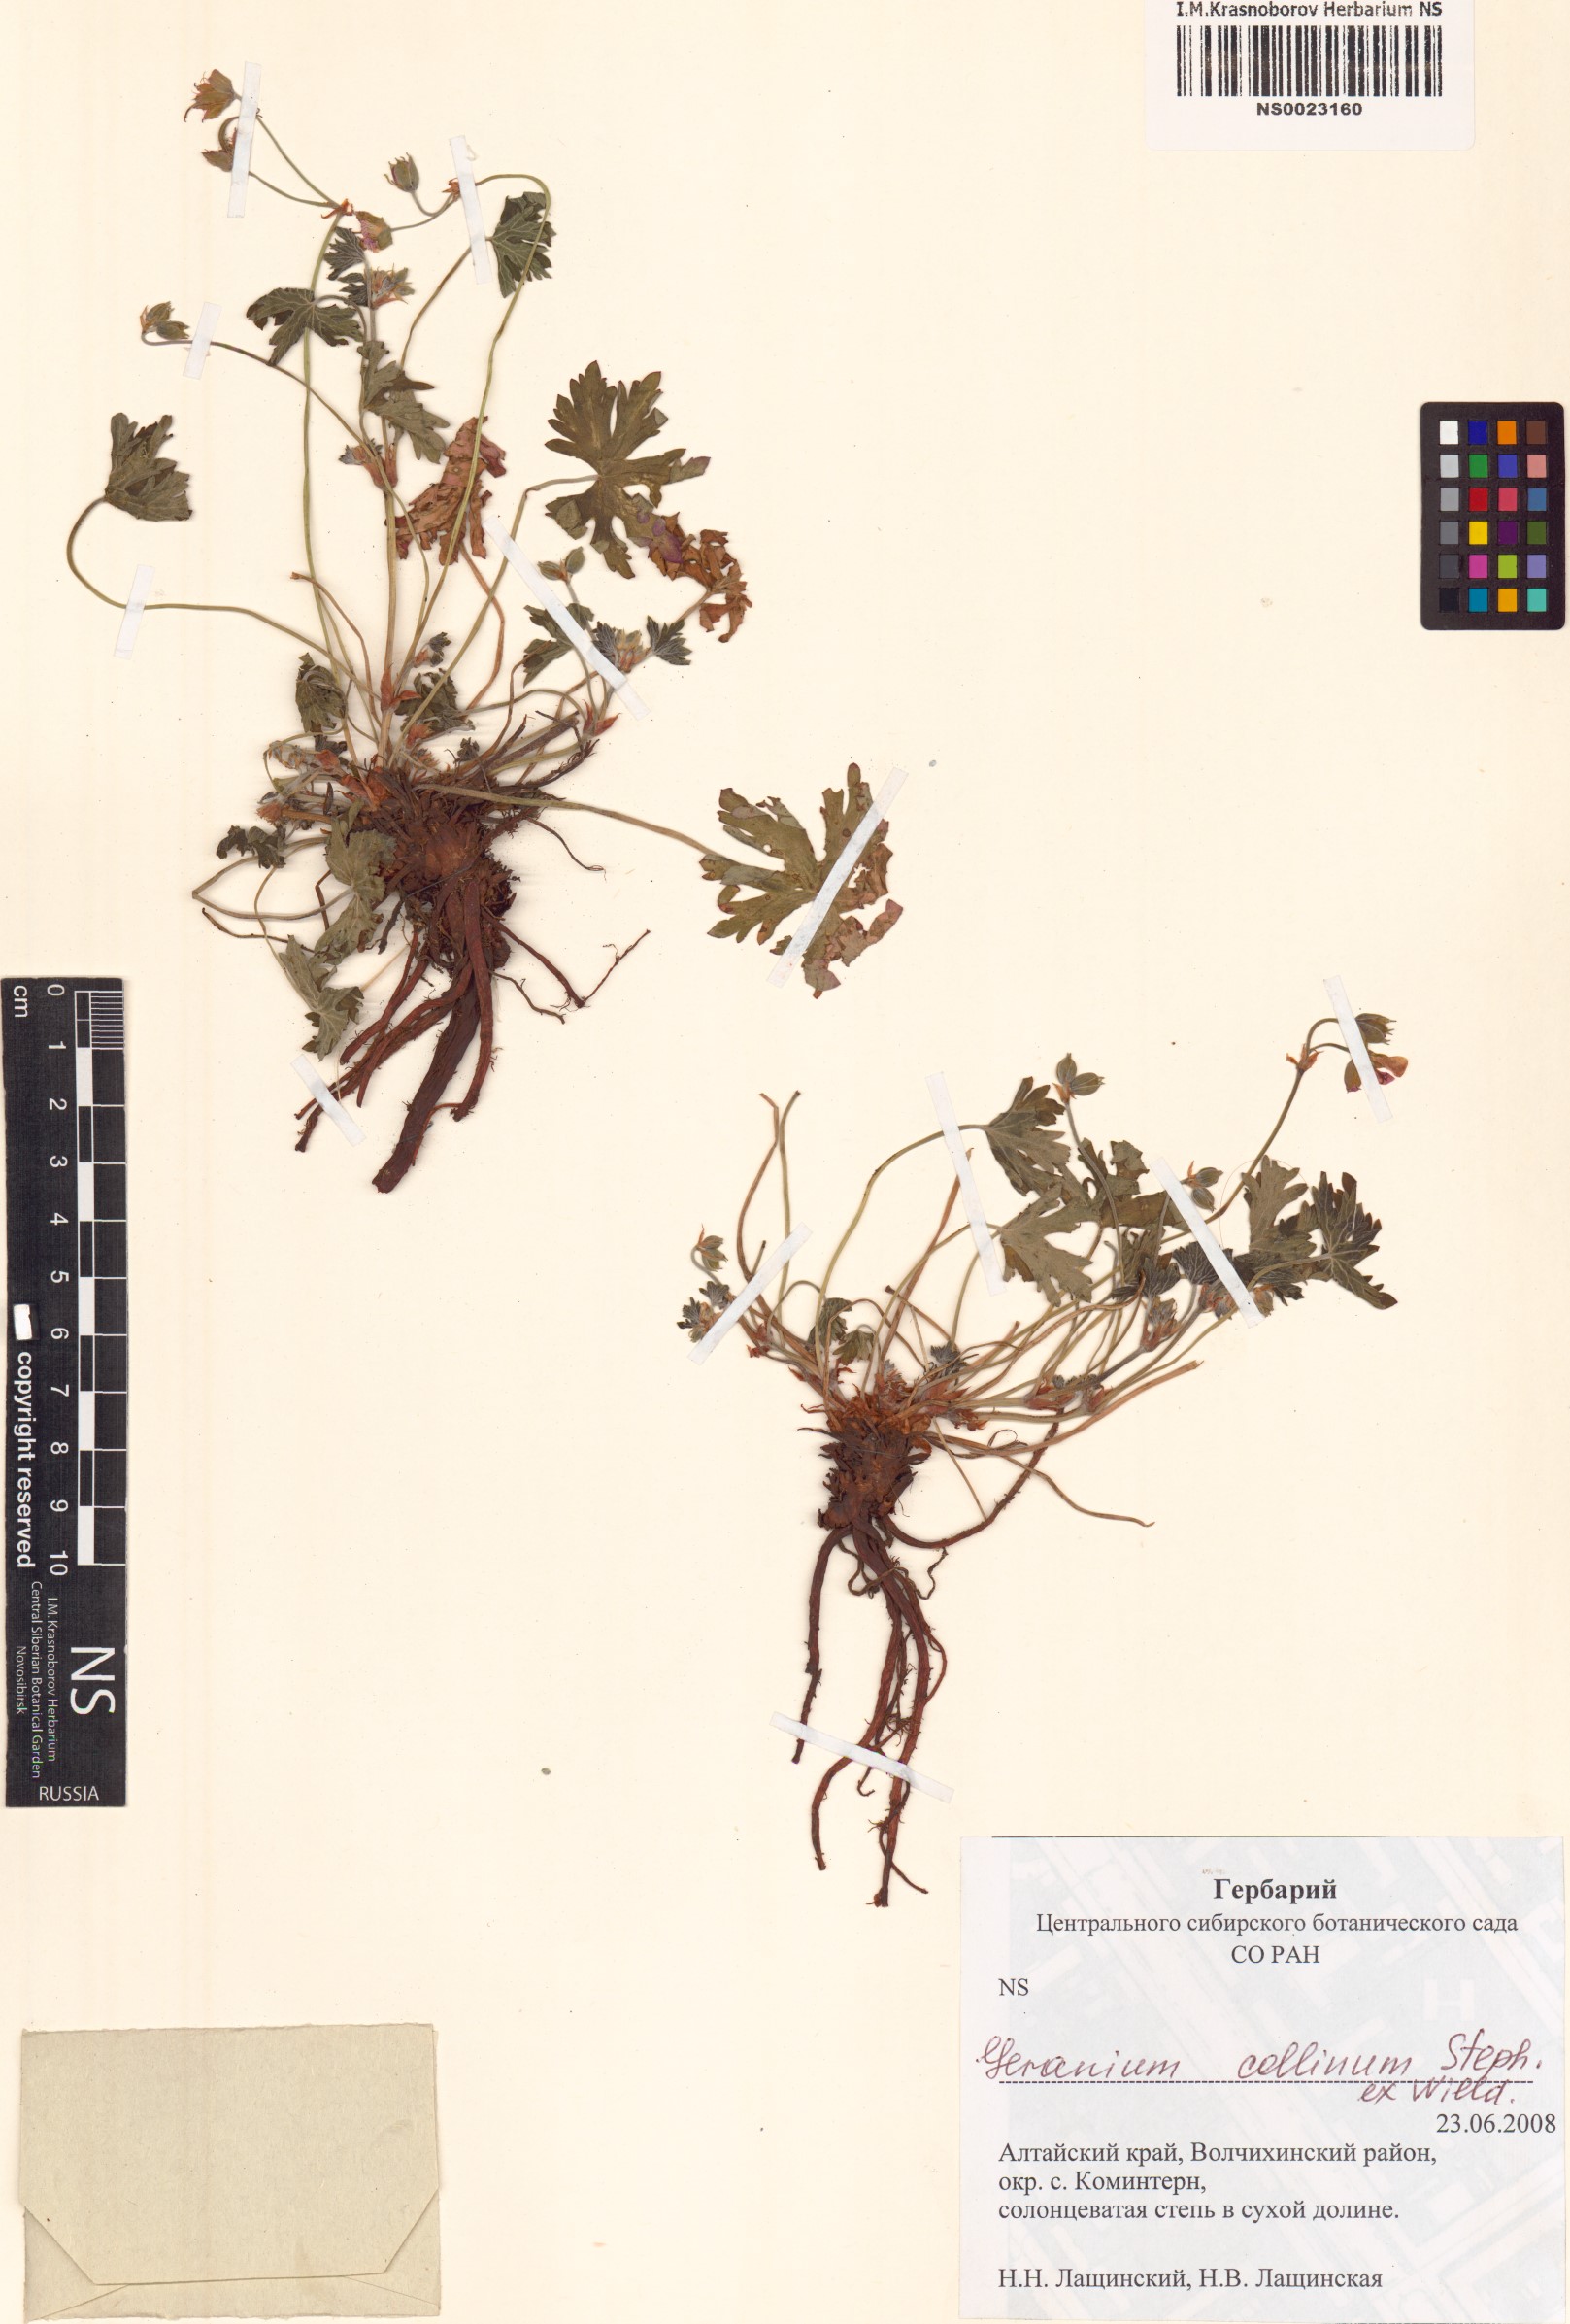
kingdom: Plantae
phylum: Tracheophyta
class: Magnoliopsida
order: Geraniales
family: Geraniaceae
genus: Geranium
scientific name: Geranium collinum
